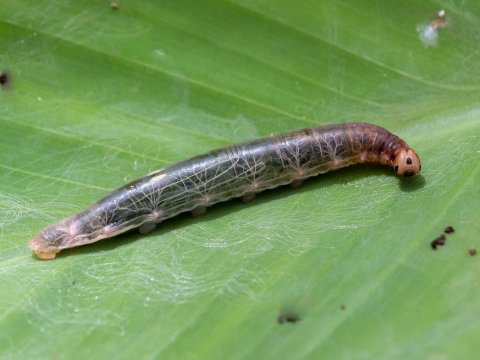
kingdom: Animalia
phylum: Arthropoda
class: Insecta
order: Lepidoptera
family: Hesperiidae
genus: Calpodes
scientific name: Calpodes
